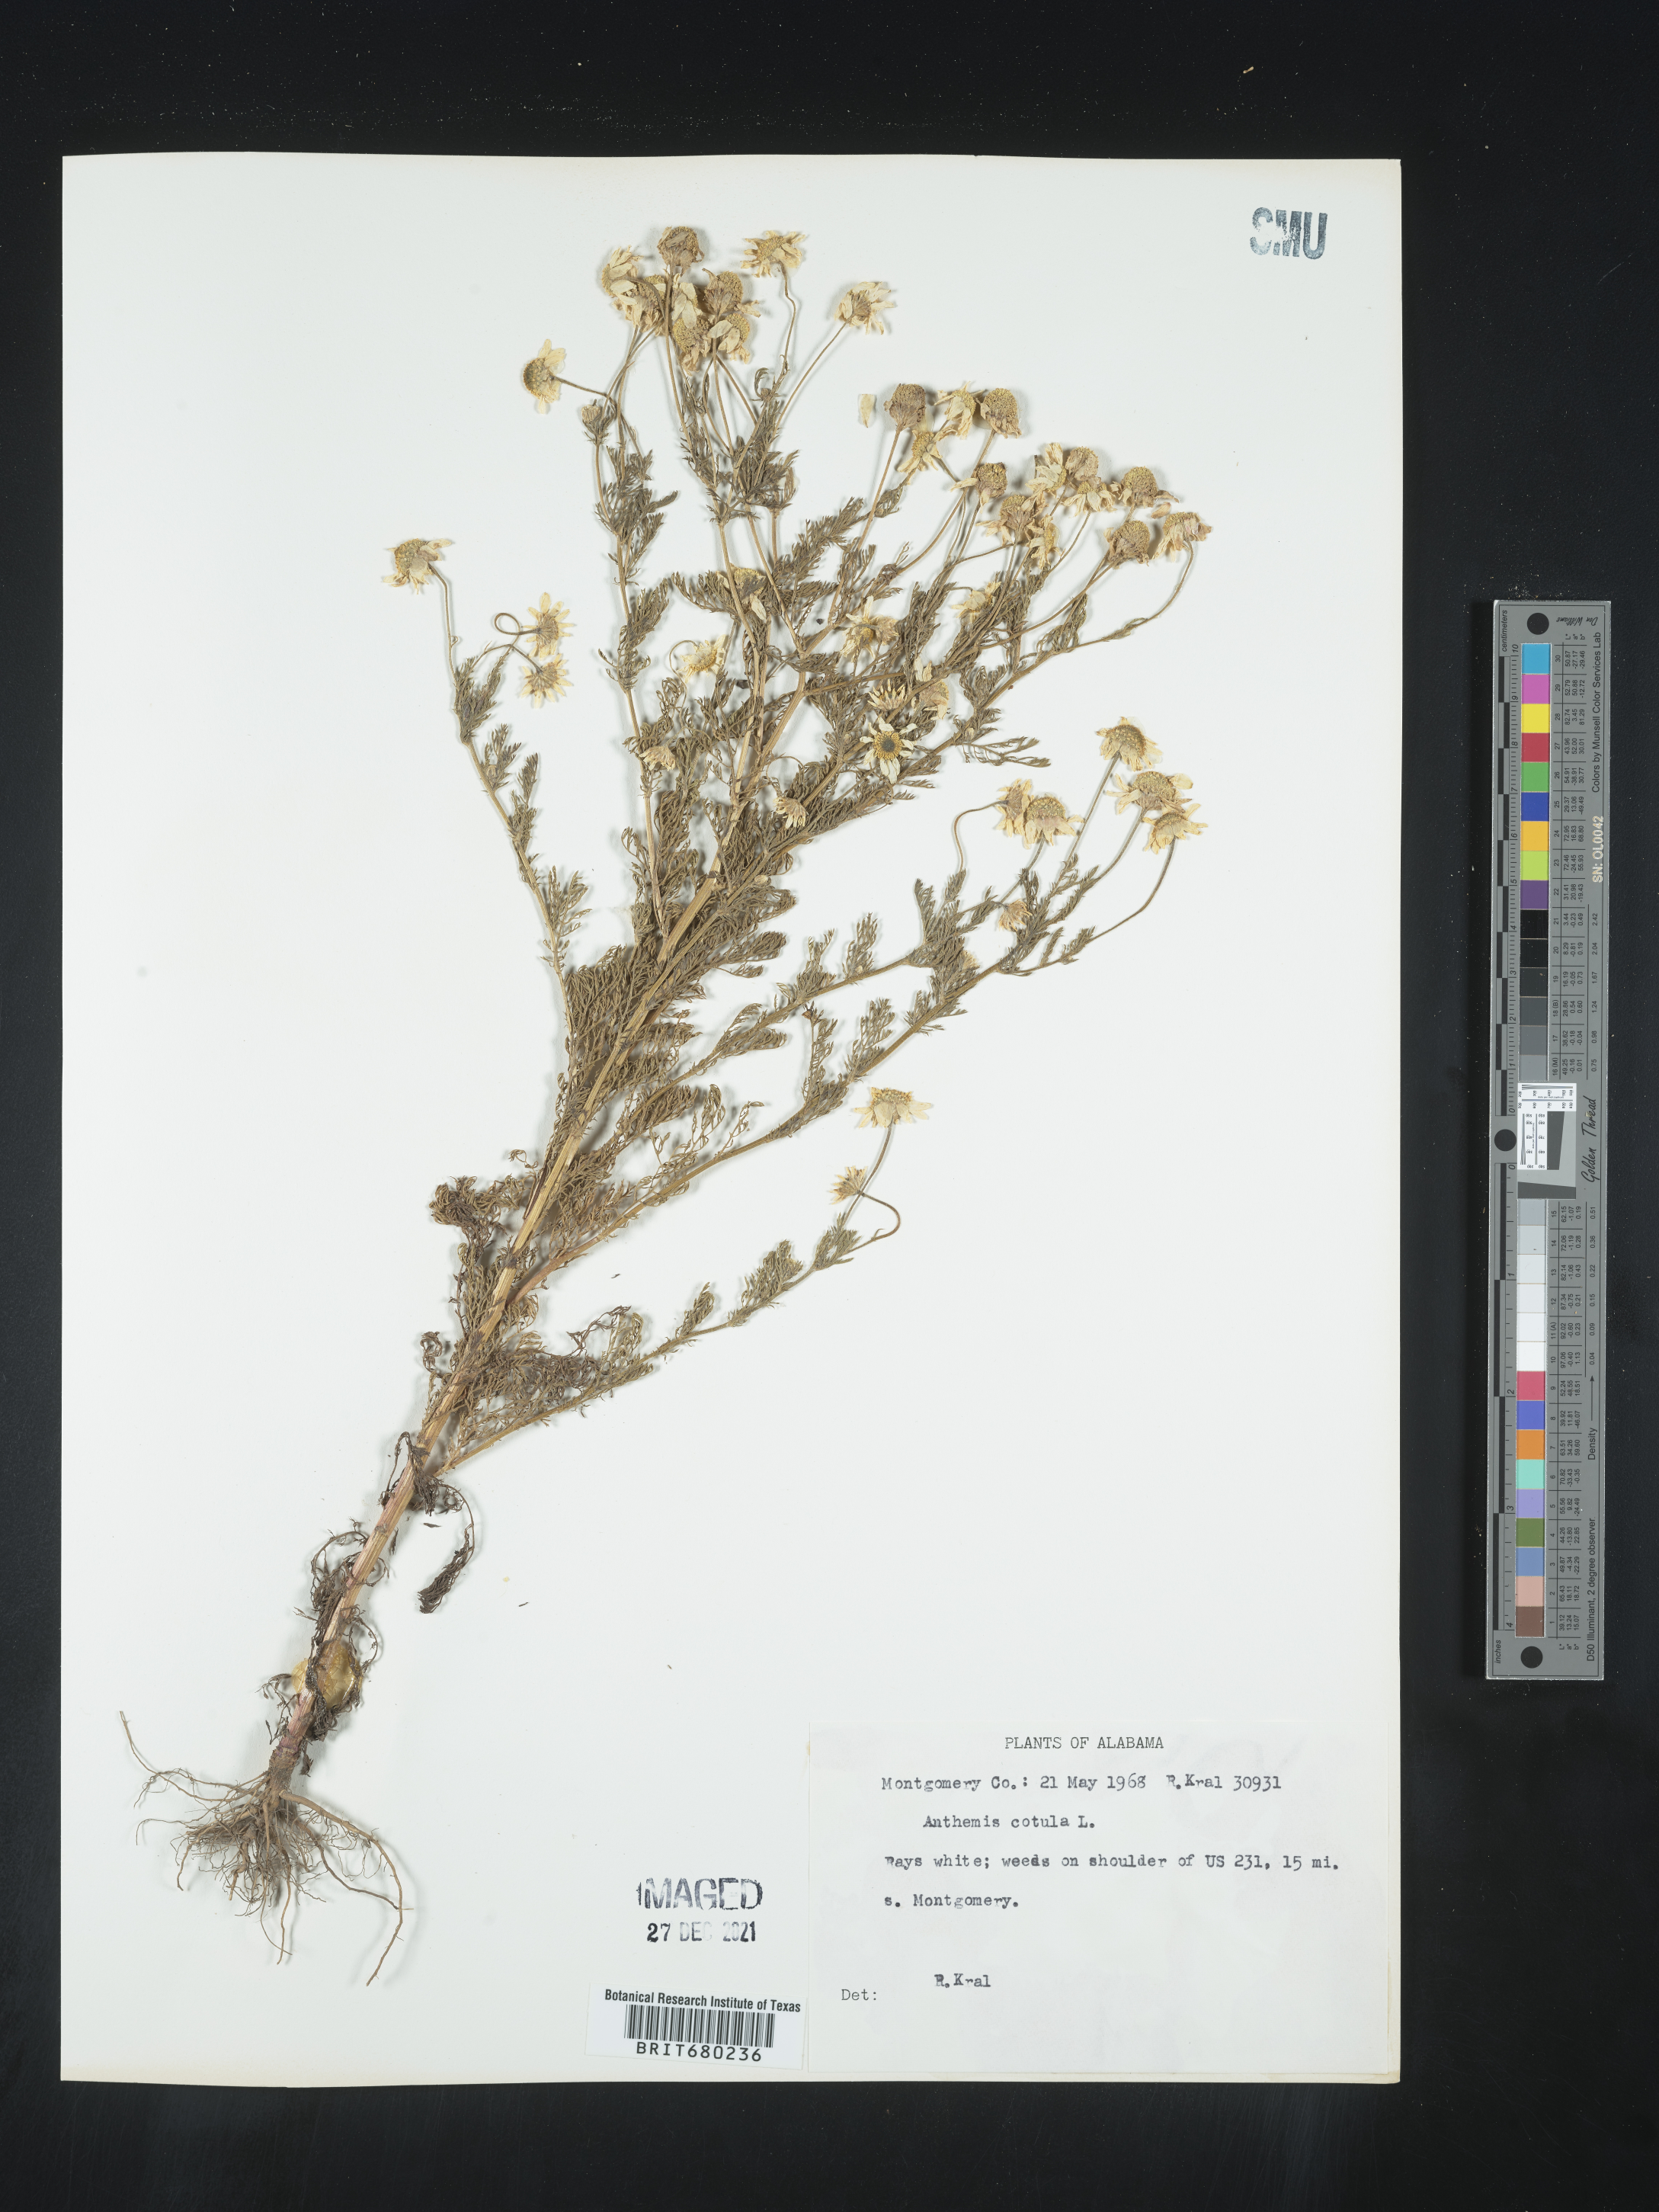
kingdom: Plantae
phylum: Tracheophyta
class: Magnoliopsida
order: Asterales
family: Asteraceae
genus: Anthemis
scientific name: Anthemis cotula
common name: Stinking chamomile
